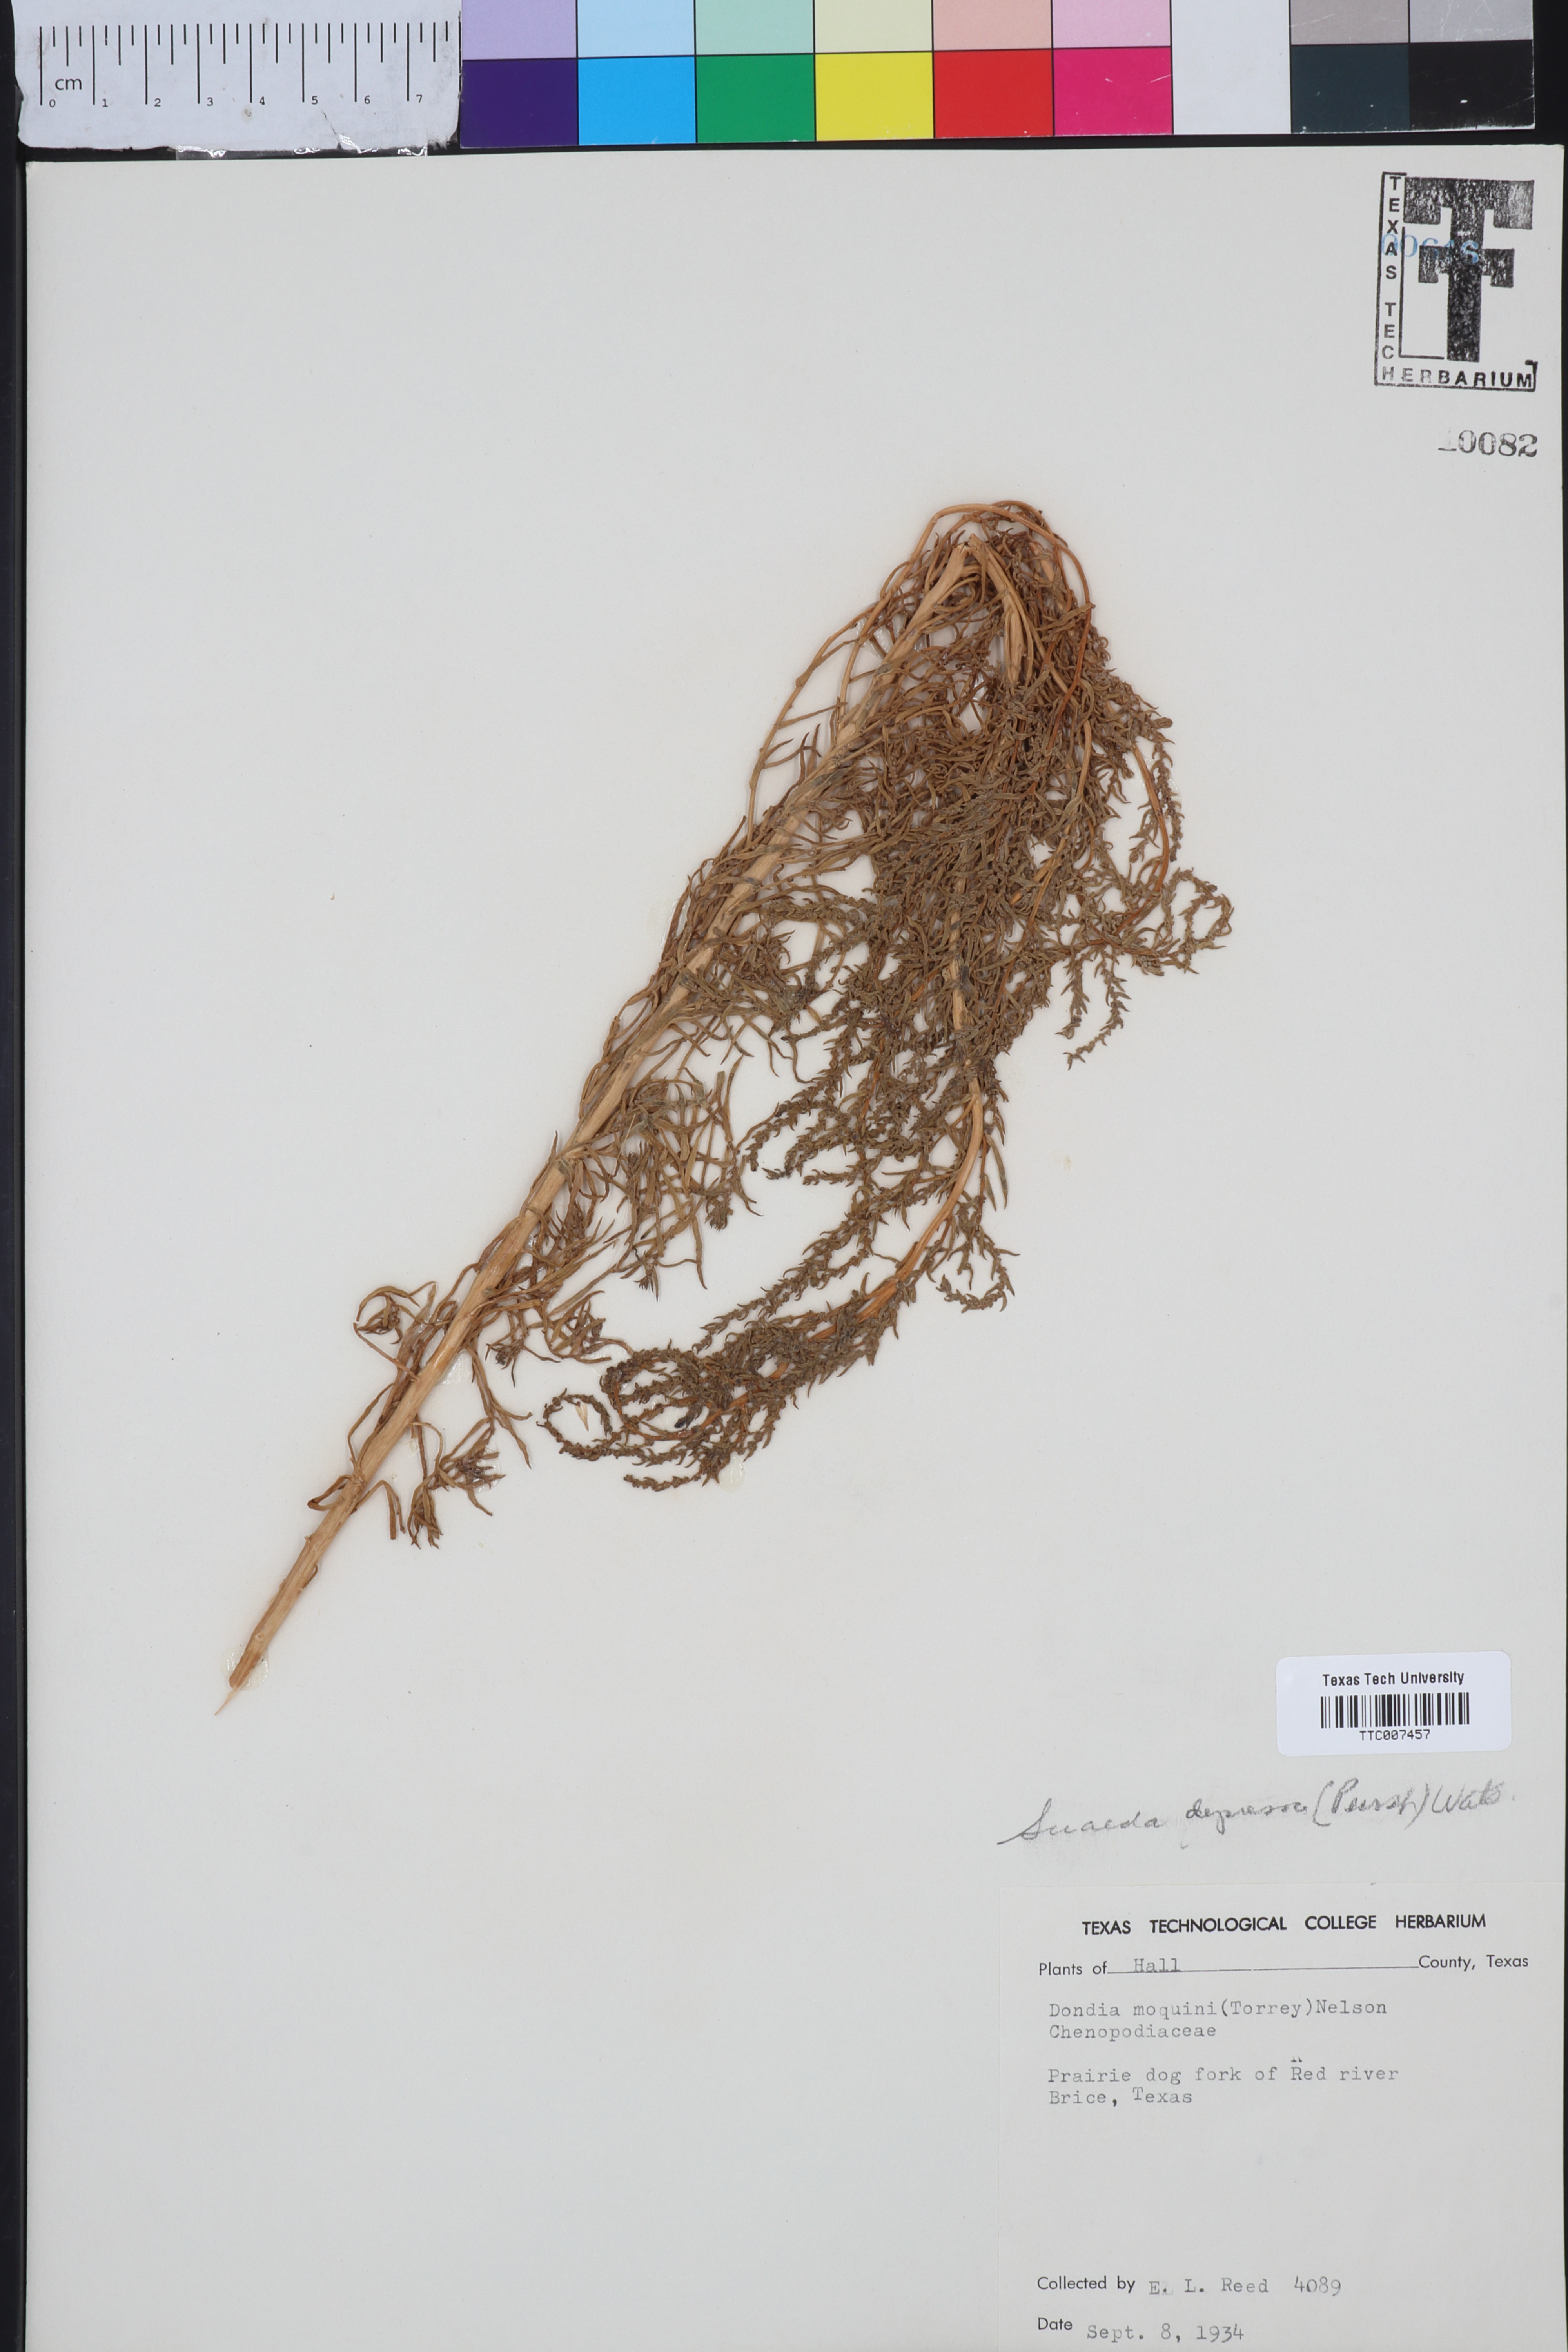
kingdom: Plantae
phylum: Tracheophyta
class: Magnoliopsida
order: Caryophyllales
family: Amaranthaceae
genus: Suaeda
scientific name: Suaeda calceoliformis
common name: Pursh's seepweed
